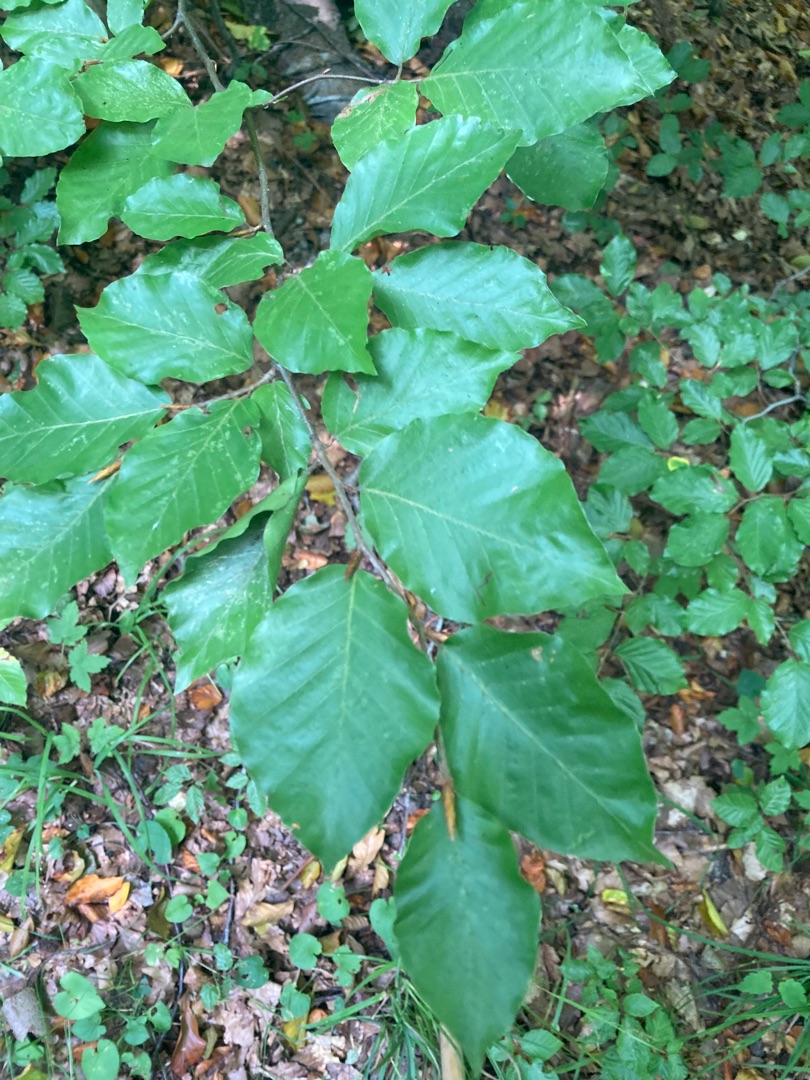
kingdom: Plantae
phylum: Tracheophyta
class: Magnoliopsida
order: Fagales
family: Fagaceae
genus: Fagus
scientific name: Fagus sylvatica
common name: Bøg
